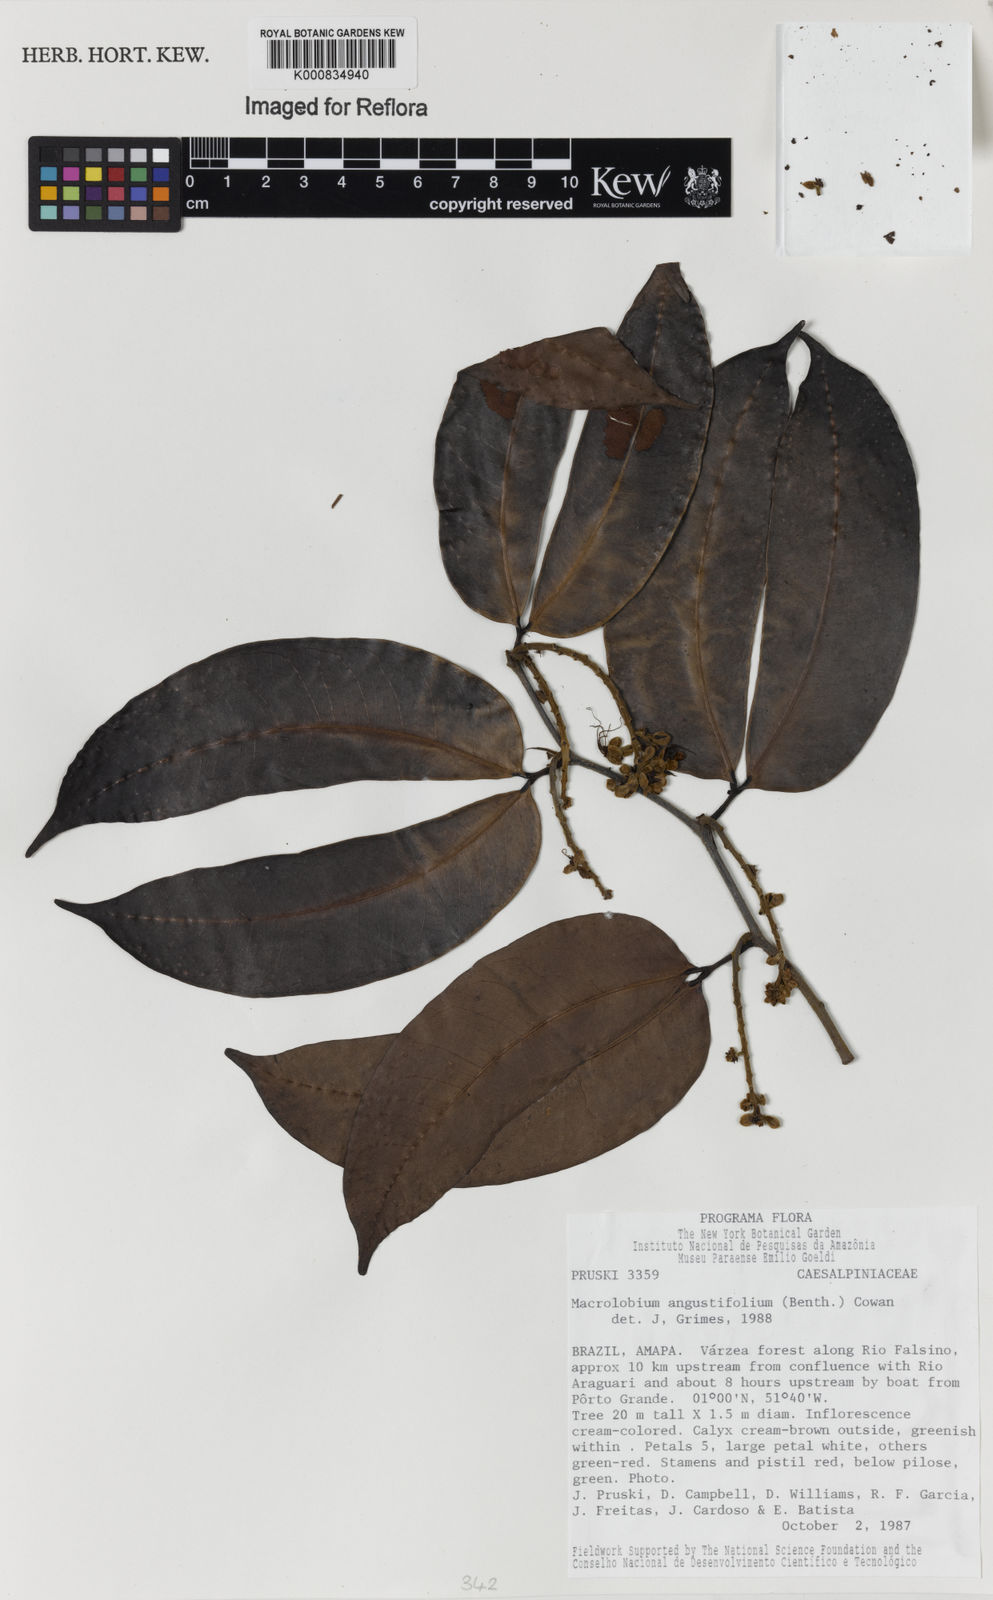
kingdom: Plantae
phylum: Tracheophyta
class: Magnoliopsida
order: Fabales
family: Fabaceae
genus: Macrolobium
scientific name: Macrolobium angustifolium
